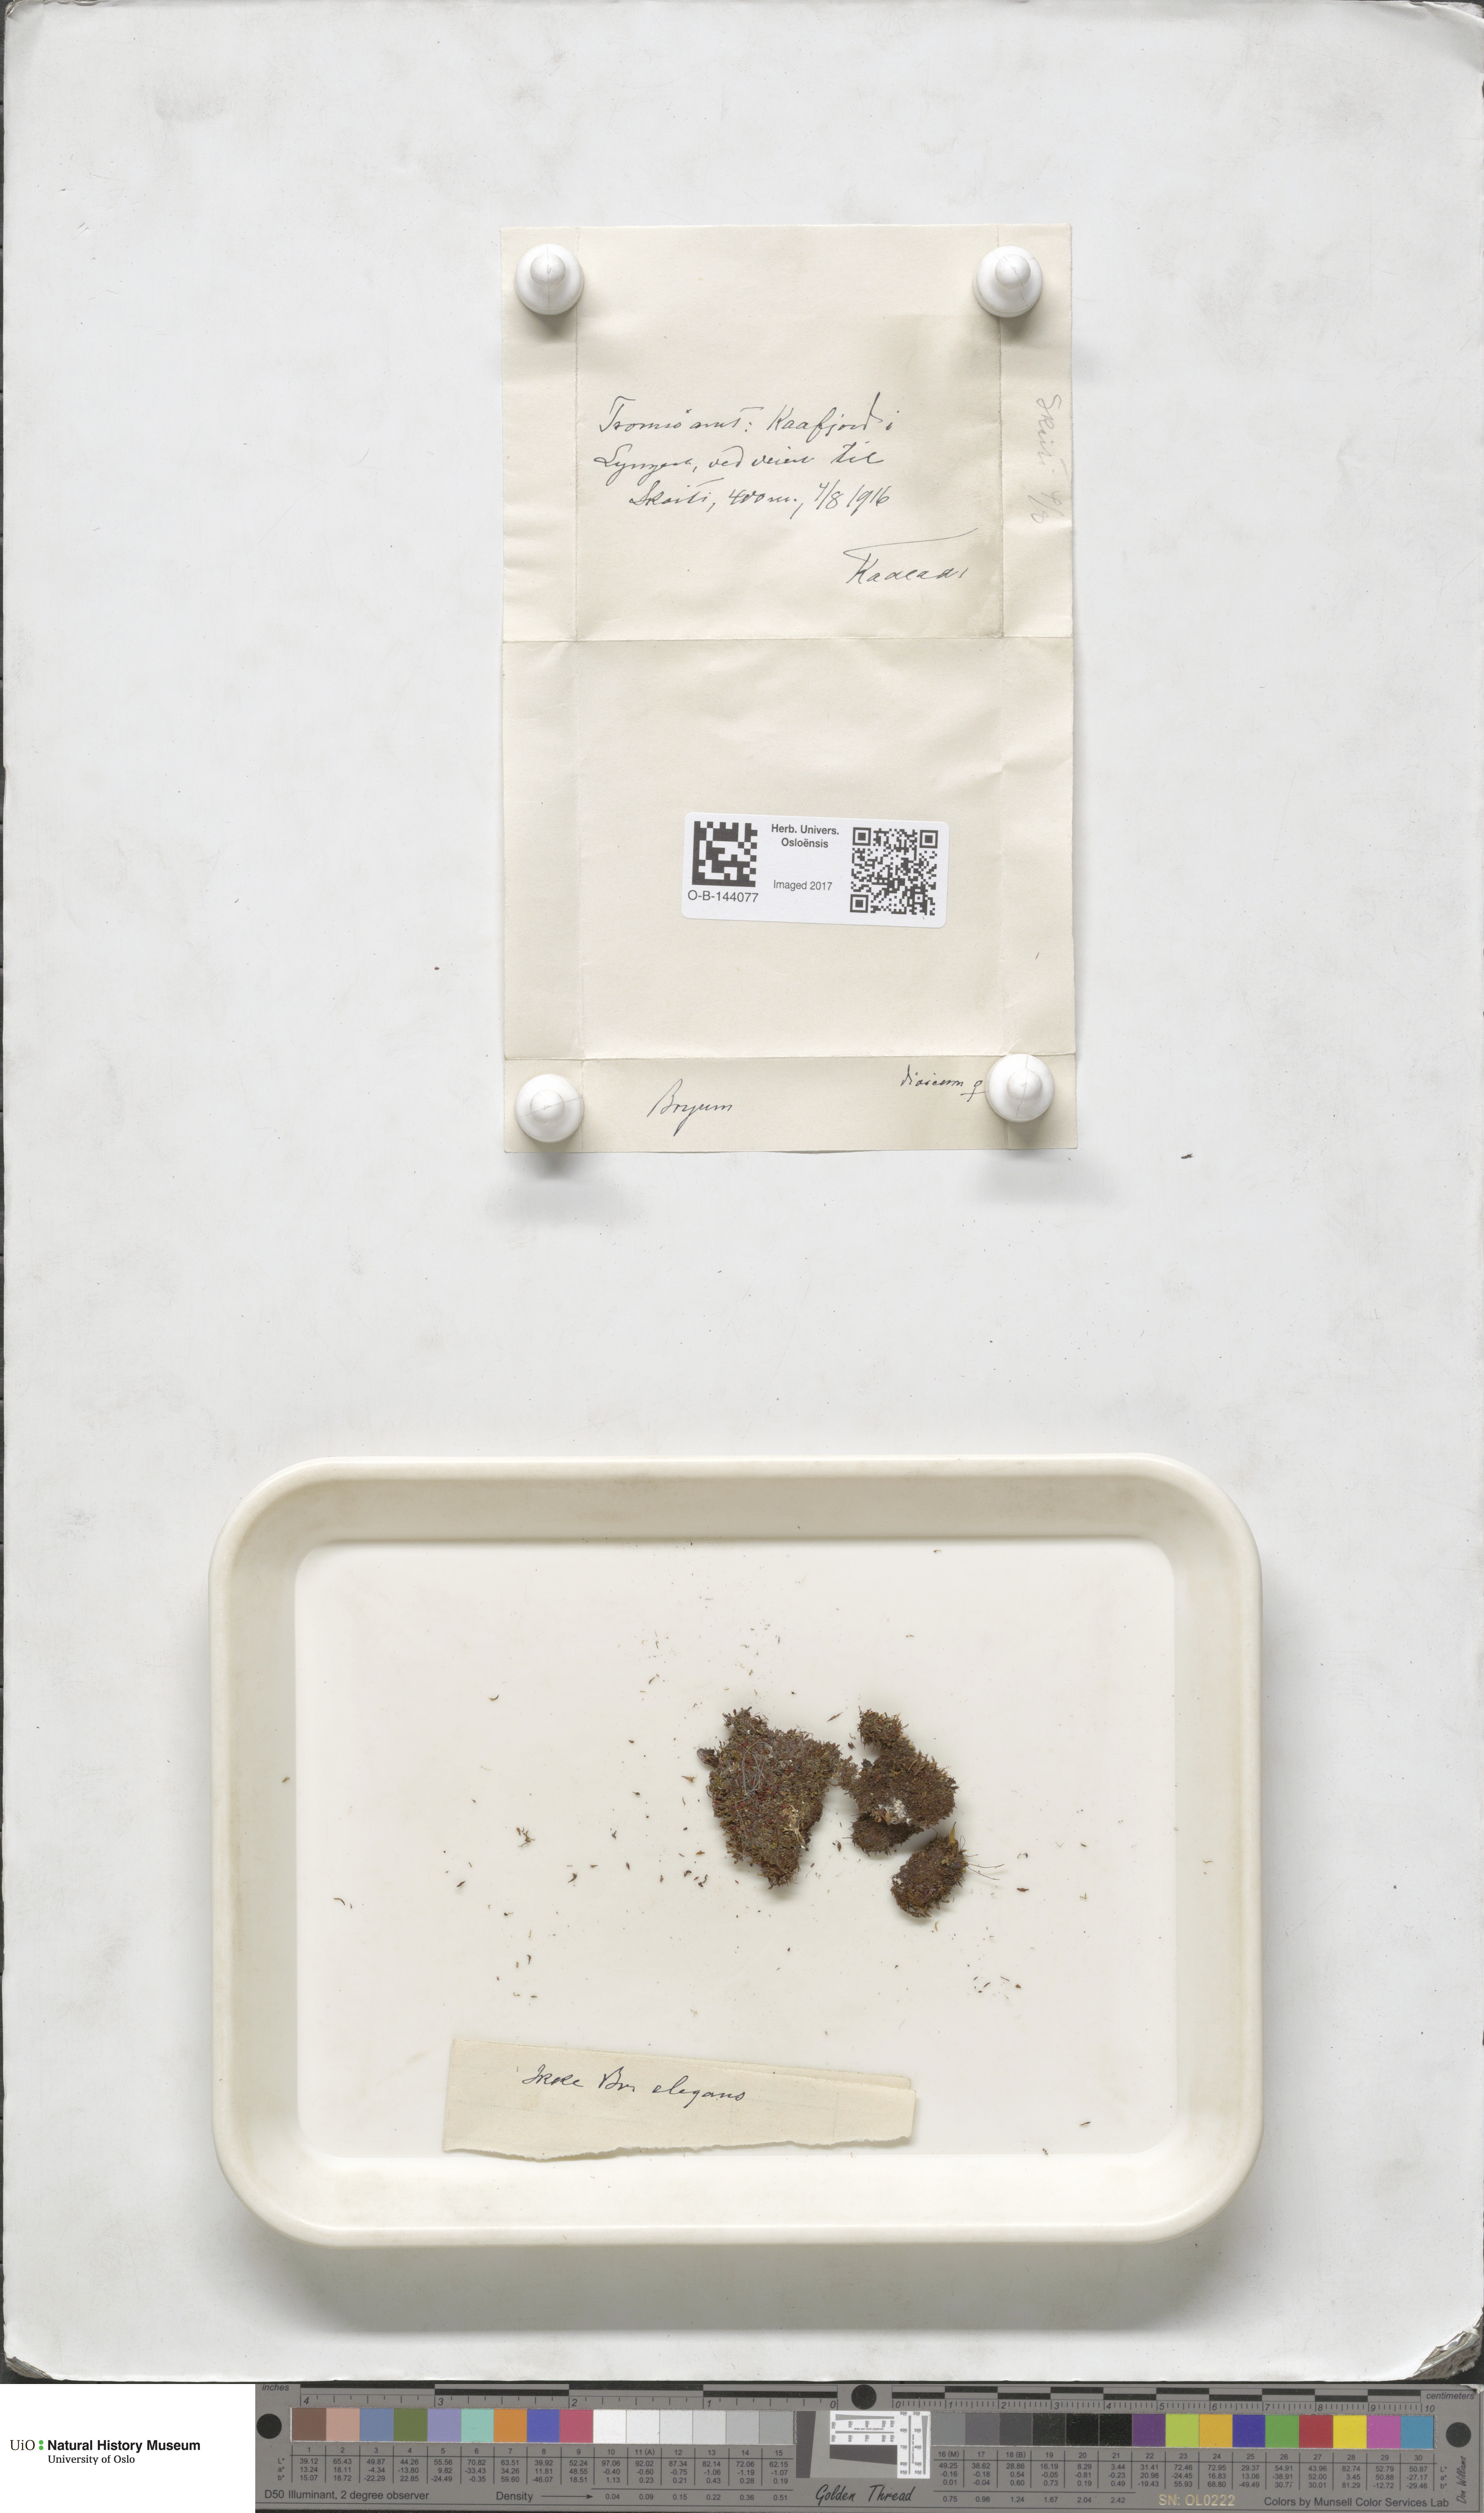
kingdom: Plantae
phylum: Bryophyta
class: Bryopsida
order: Bryales
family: Bryaceae
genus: Bryum
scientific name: Bryum
